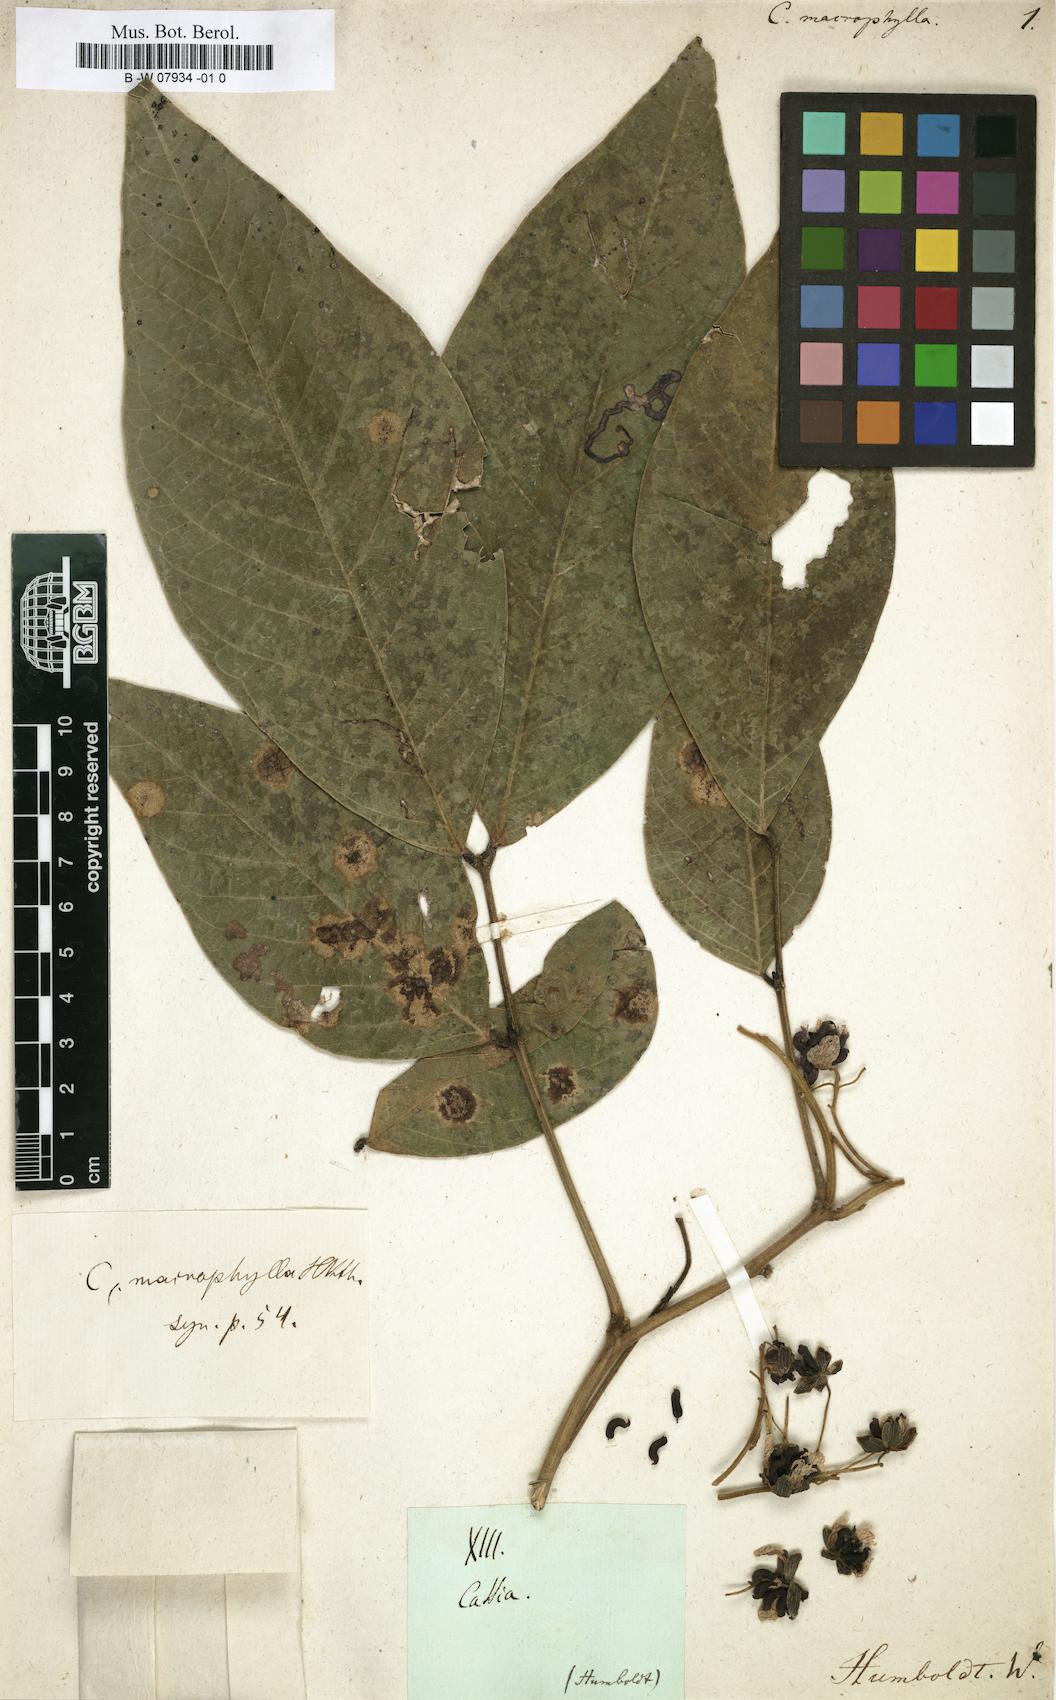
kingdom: Plantae
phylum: Tracheophyta
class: Magnoliopsida
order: Fabales
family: Fabaceae
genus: Senna
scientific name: Senna macrophylla
